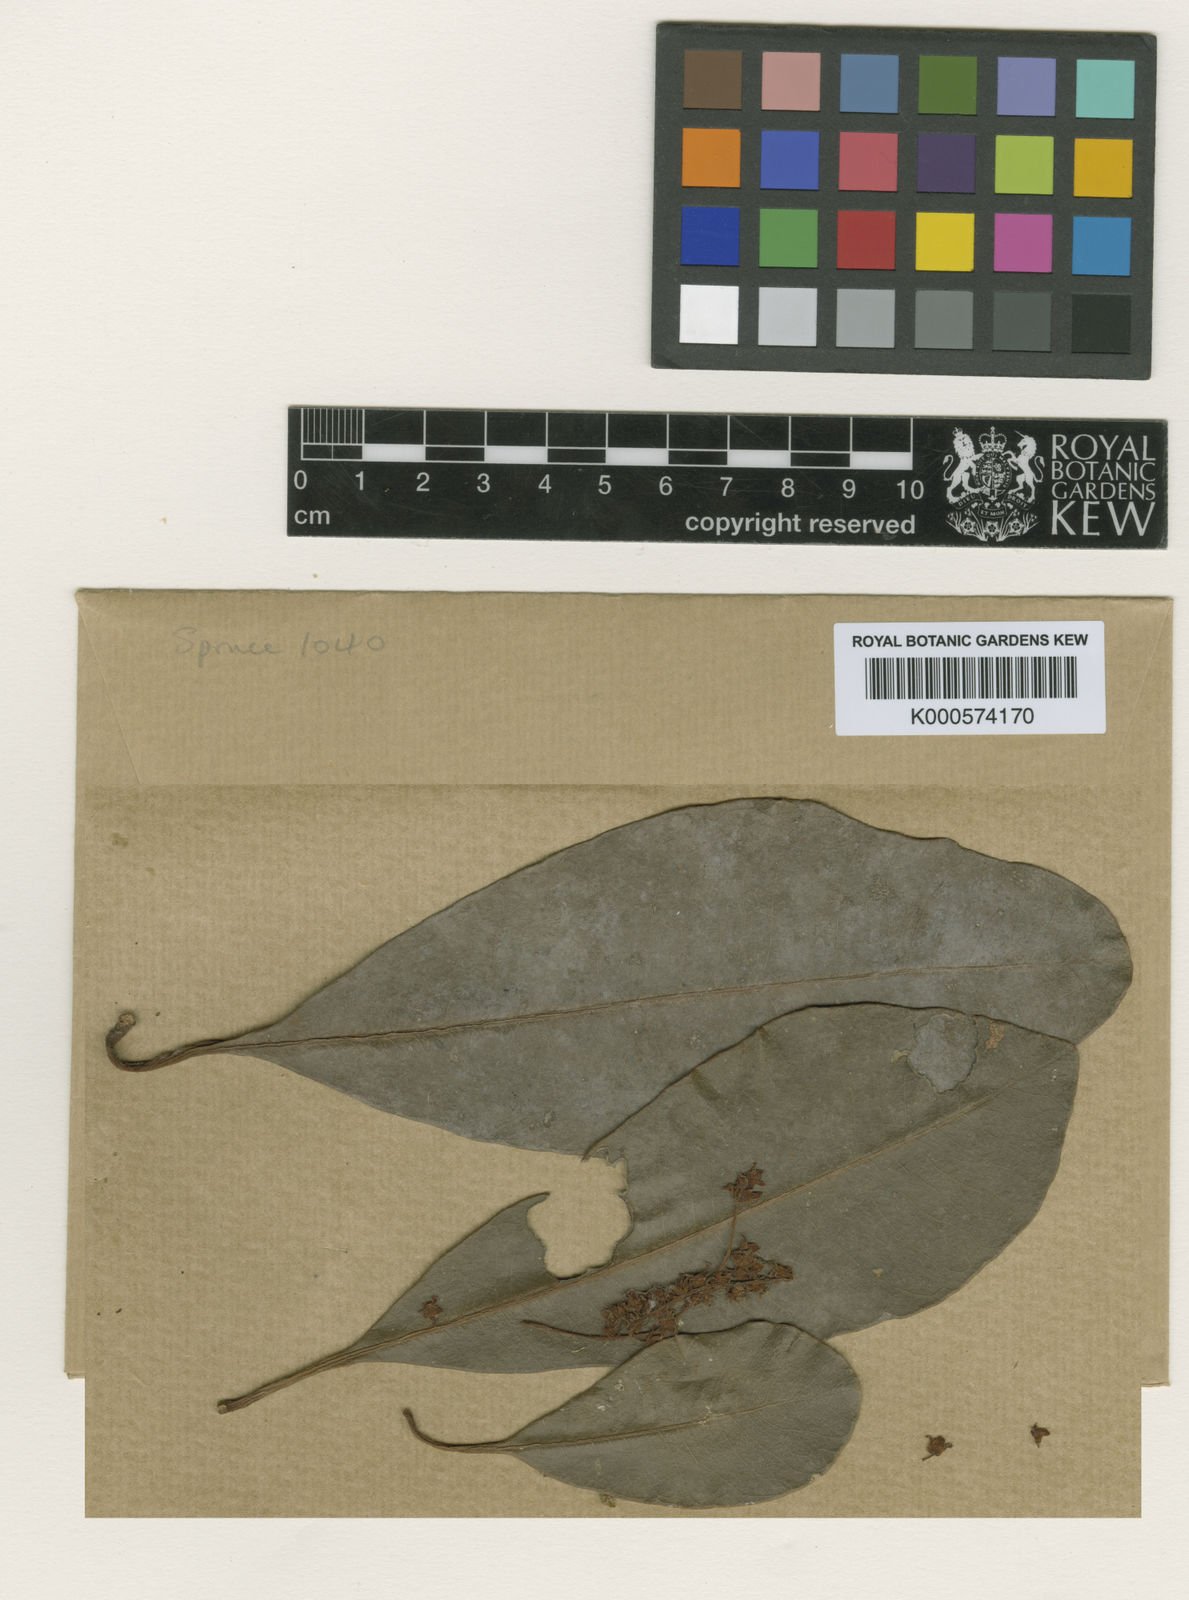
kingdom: Plantae
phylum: Tracheophyta
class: Magnoliopsida
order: Ericales
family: Primulaceae
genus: Cybianthus
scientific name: Cybianthus spicatus
